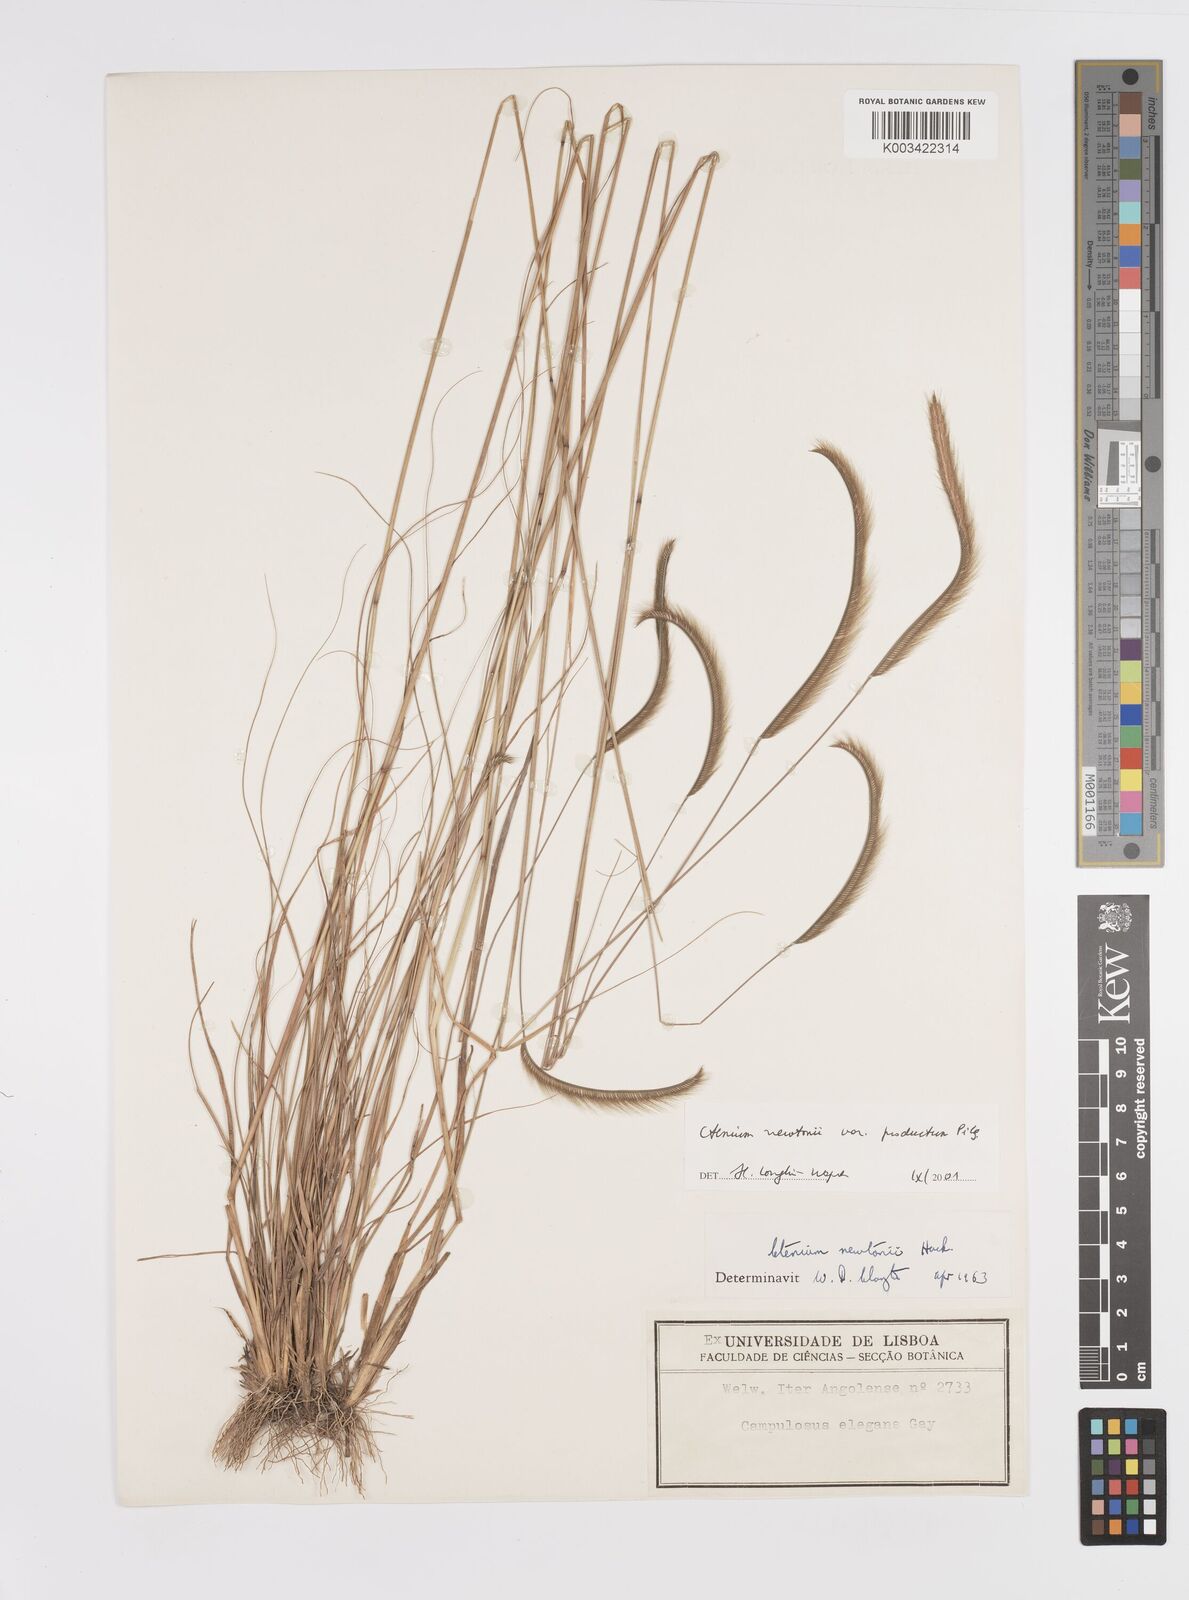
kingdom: Plantae
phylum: Tracheophyta
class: Liliopsida
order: Poales
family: Poaceae
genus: Ctenium
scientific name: Ctenium newtonii
